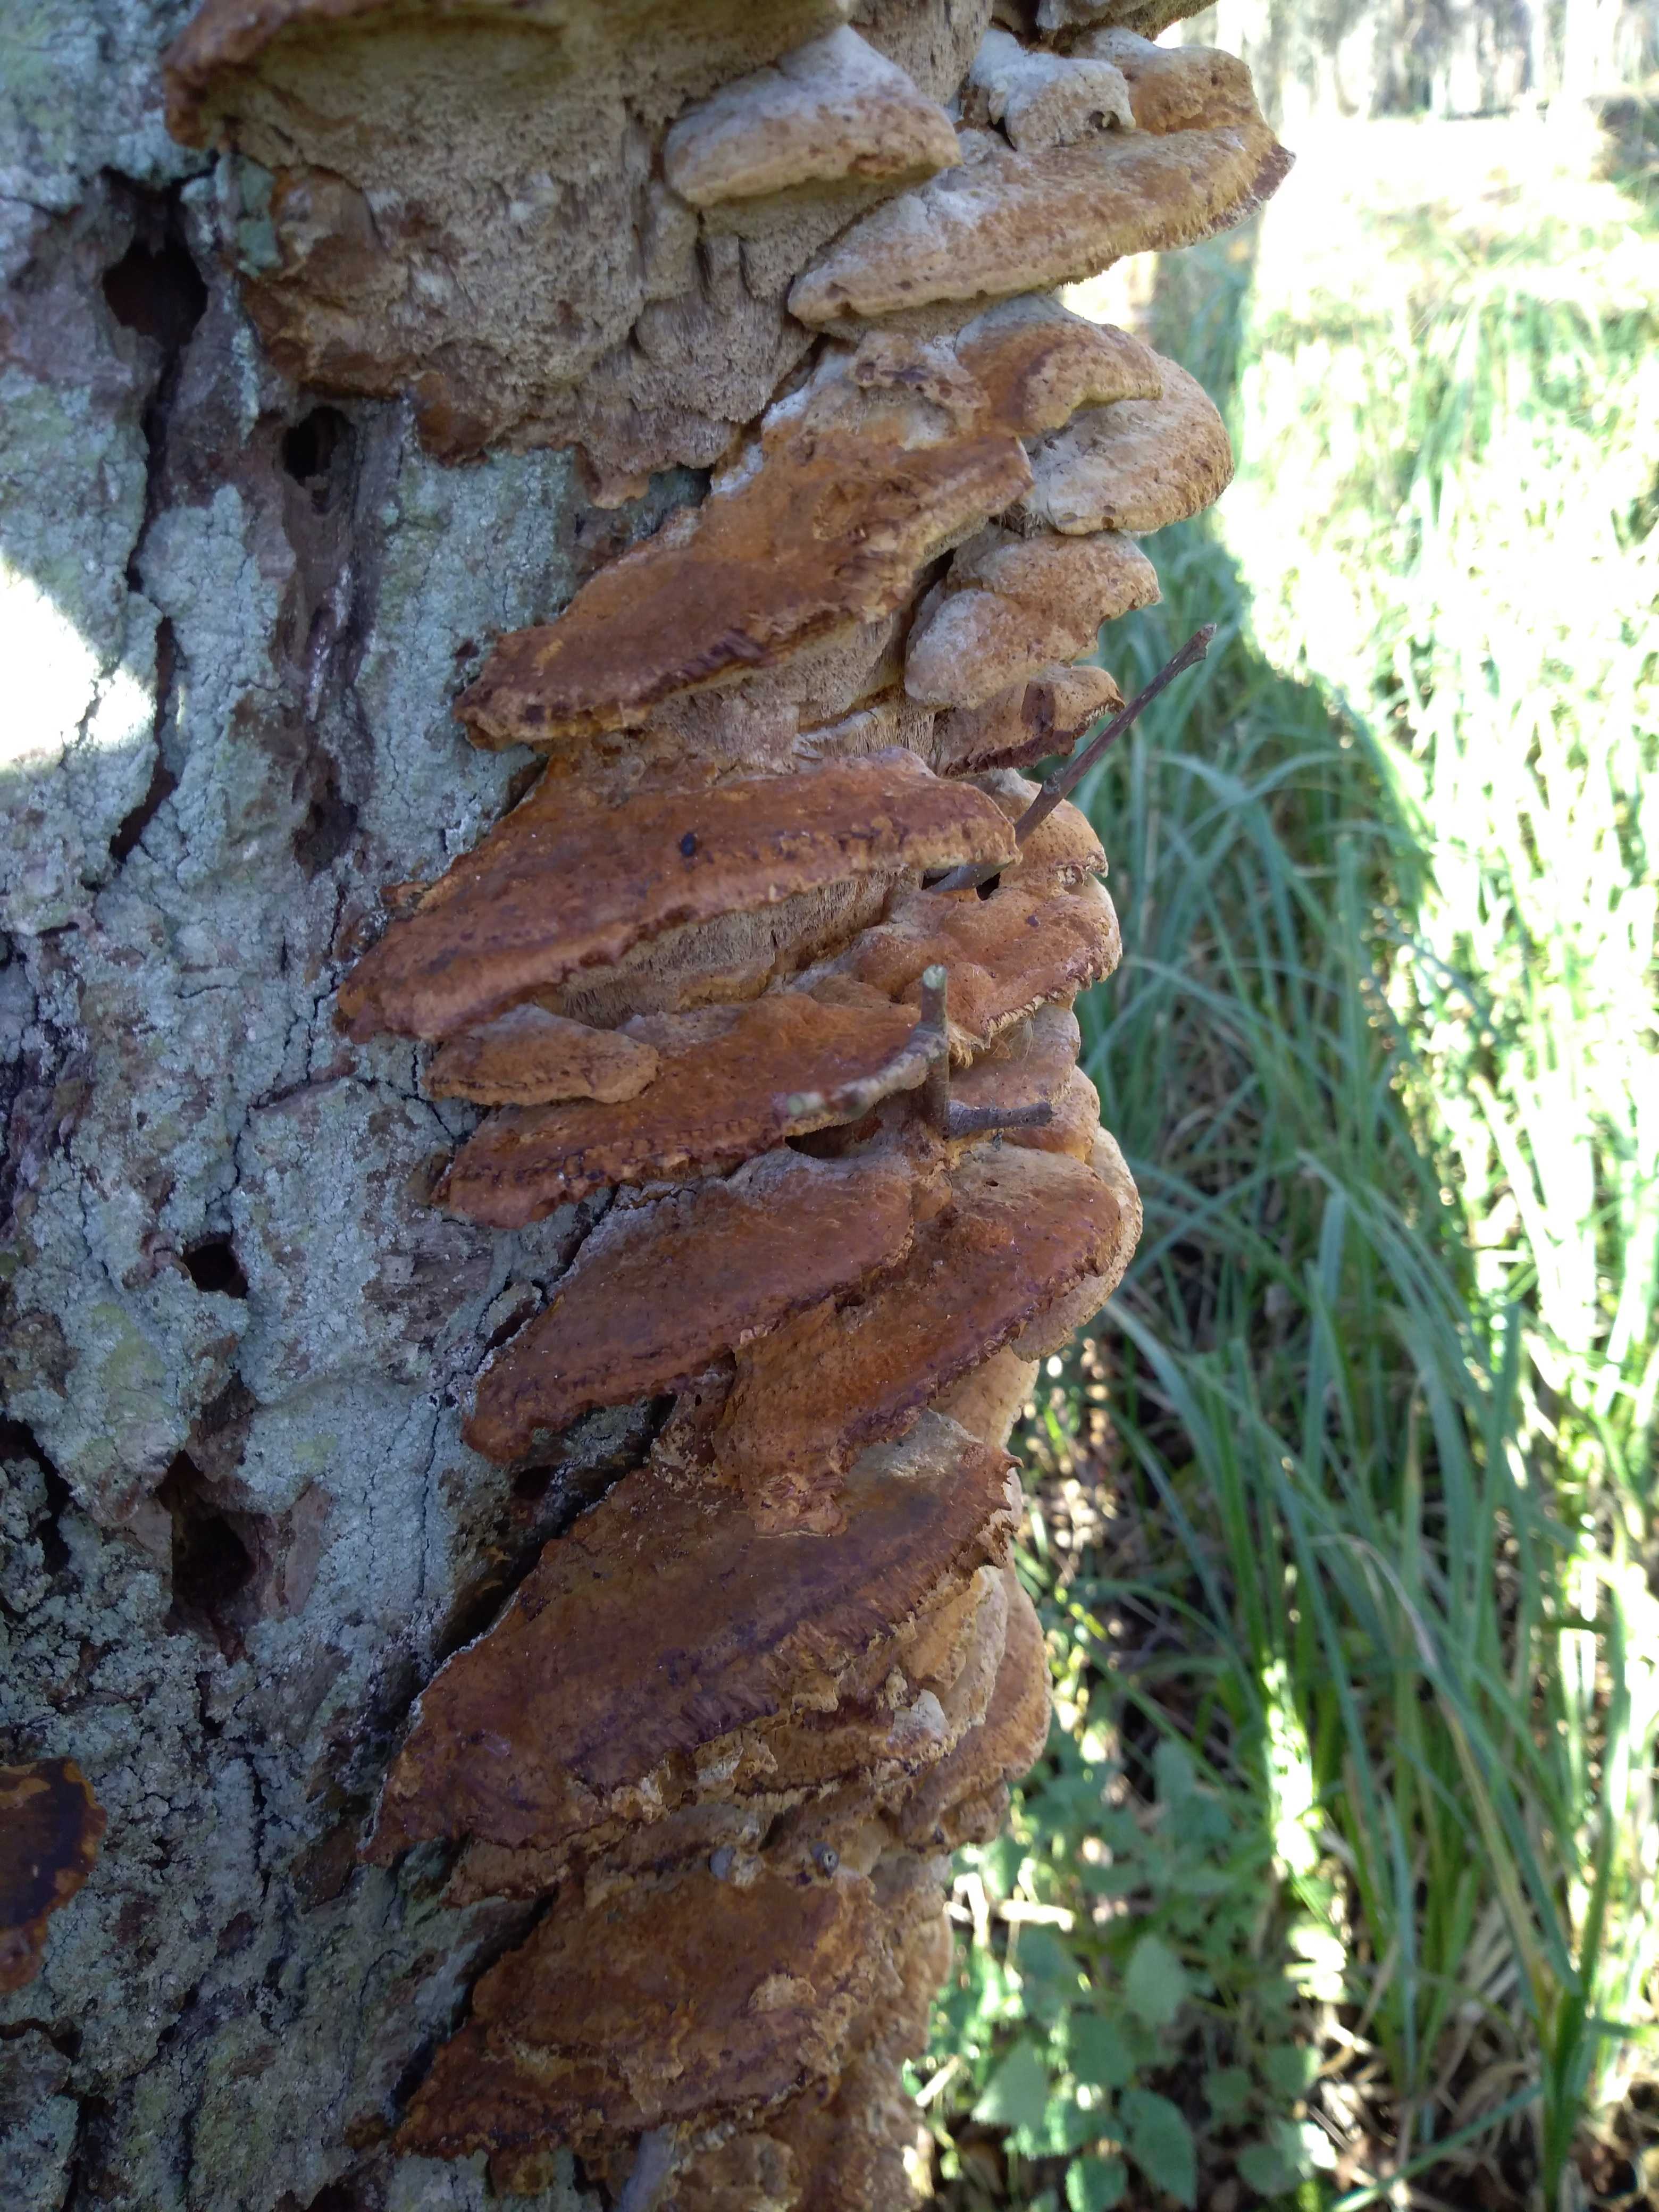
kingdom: Fungi
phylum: Basidiomycota
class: Agaricomycetes
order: Hymenochaetales
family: Hymenochaetaceae
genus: Xanthoporia
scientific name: Xanthoporia radiata
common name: elle-spejlporesvamp
